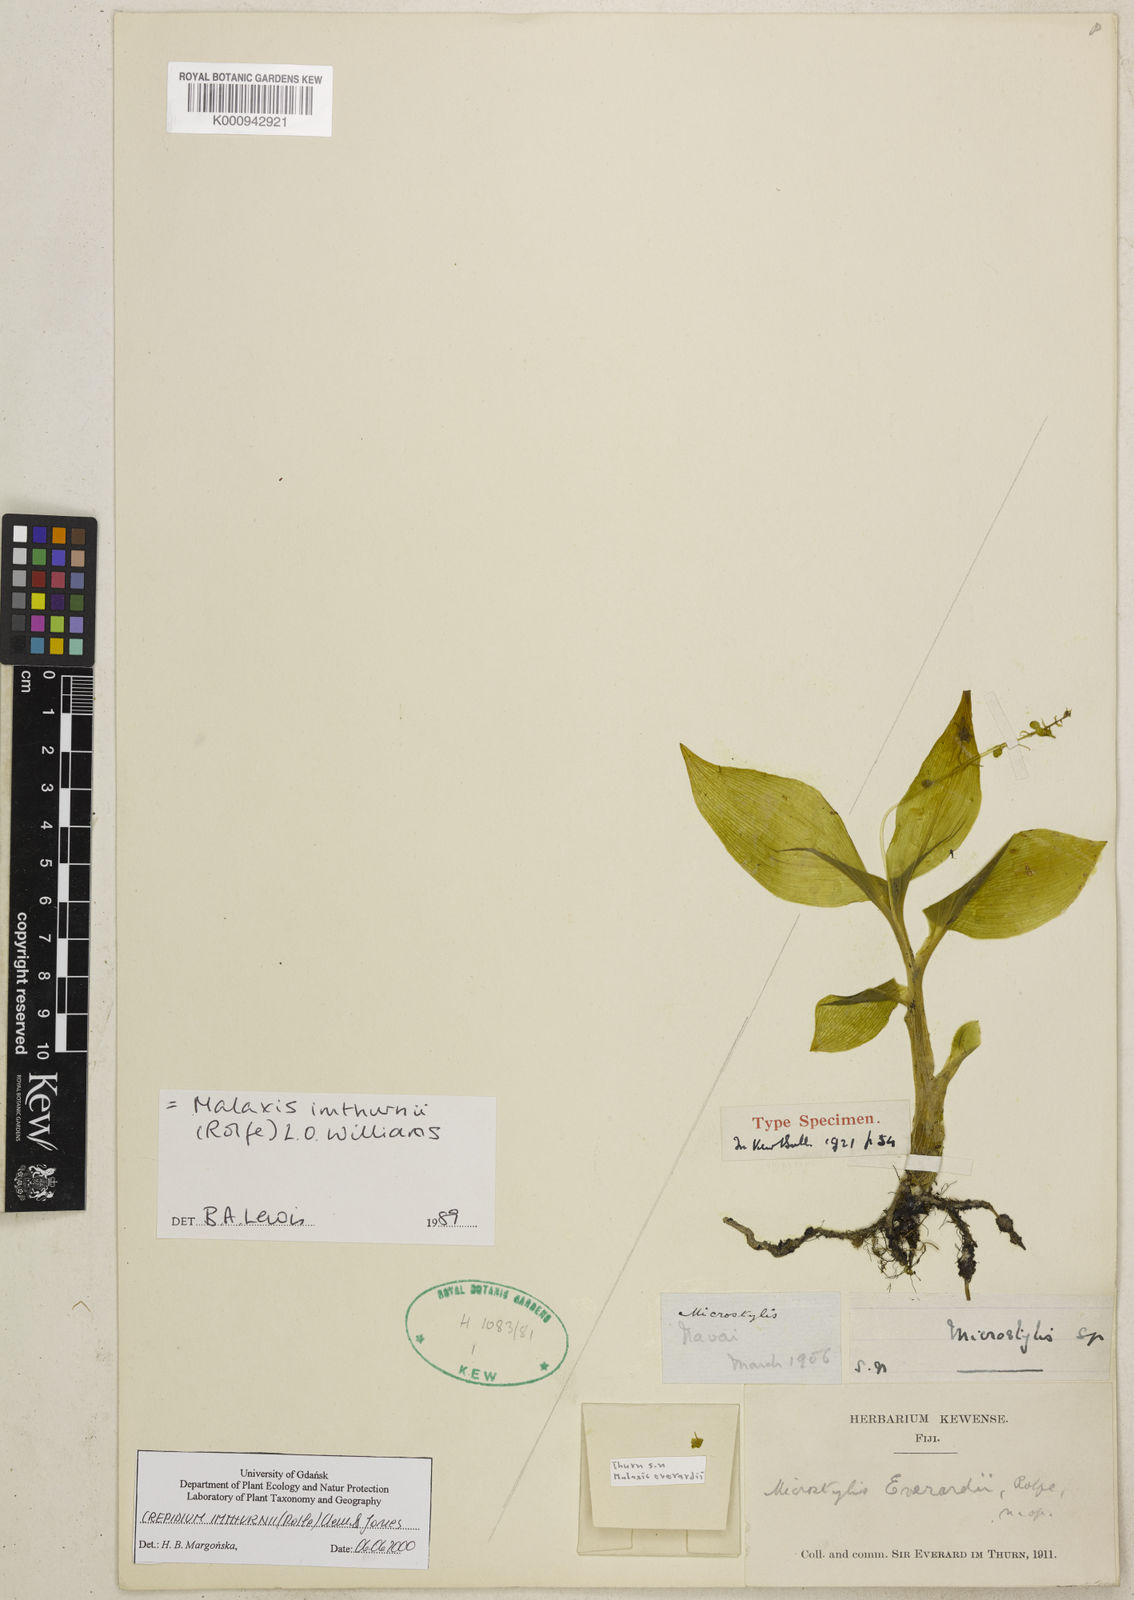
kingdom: Plantae
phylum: Tracheophyta
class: Liliopsida
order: Asparagales
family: Orchidaceae
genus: Crepidium
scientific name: Crepidium imthurnii
